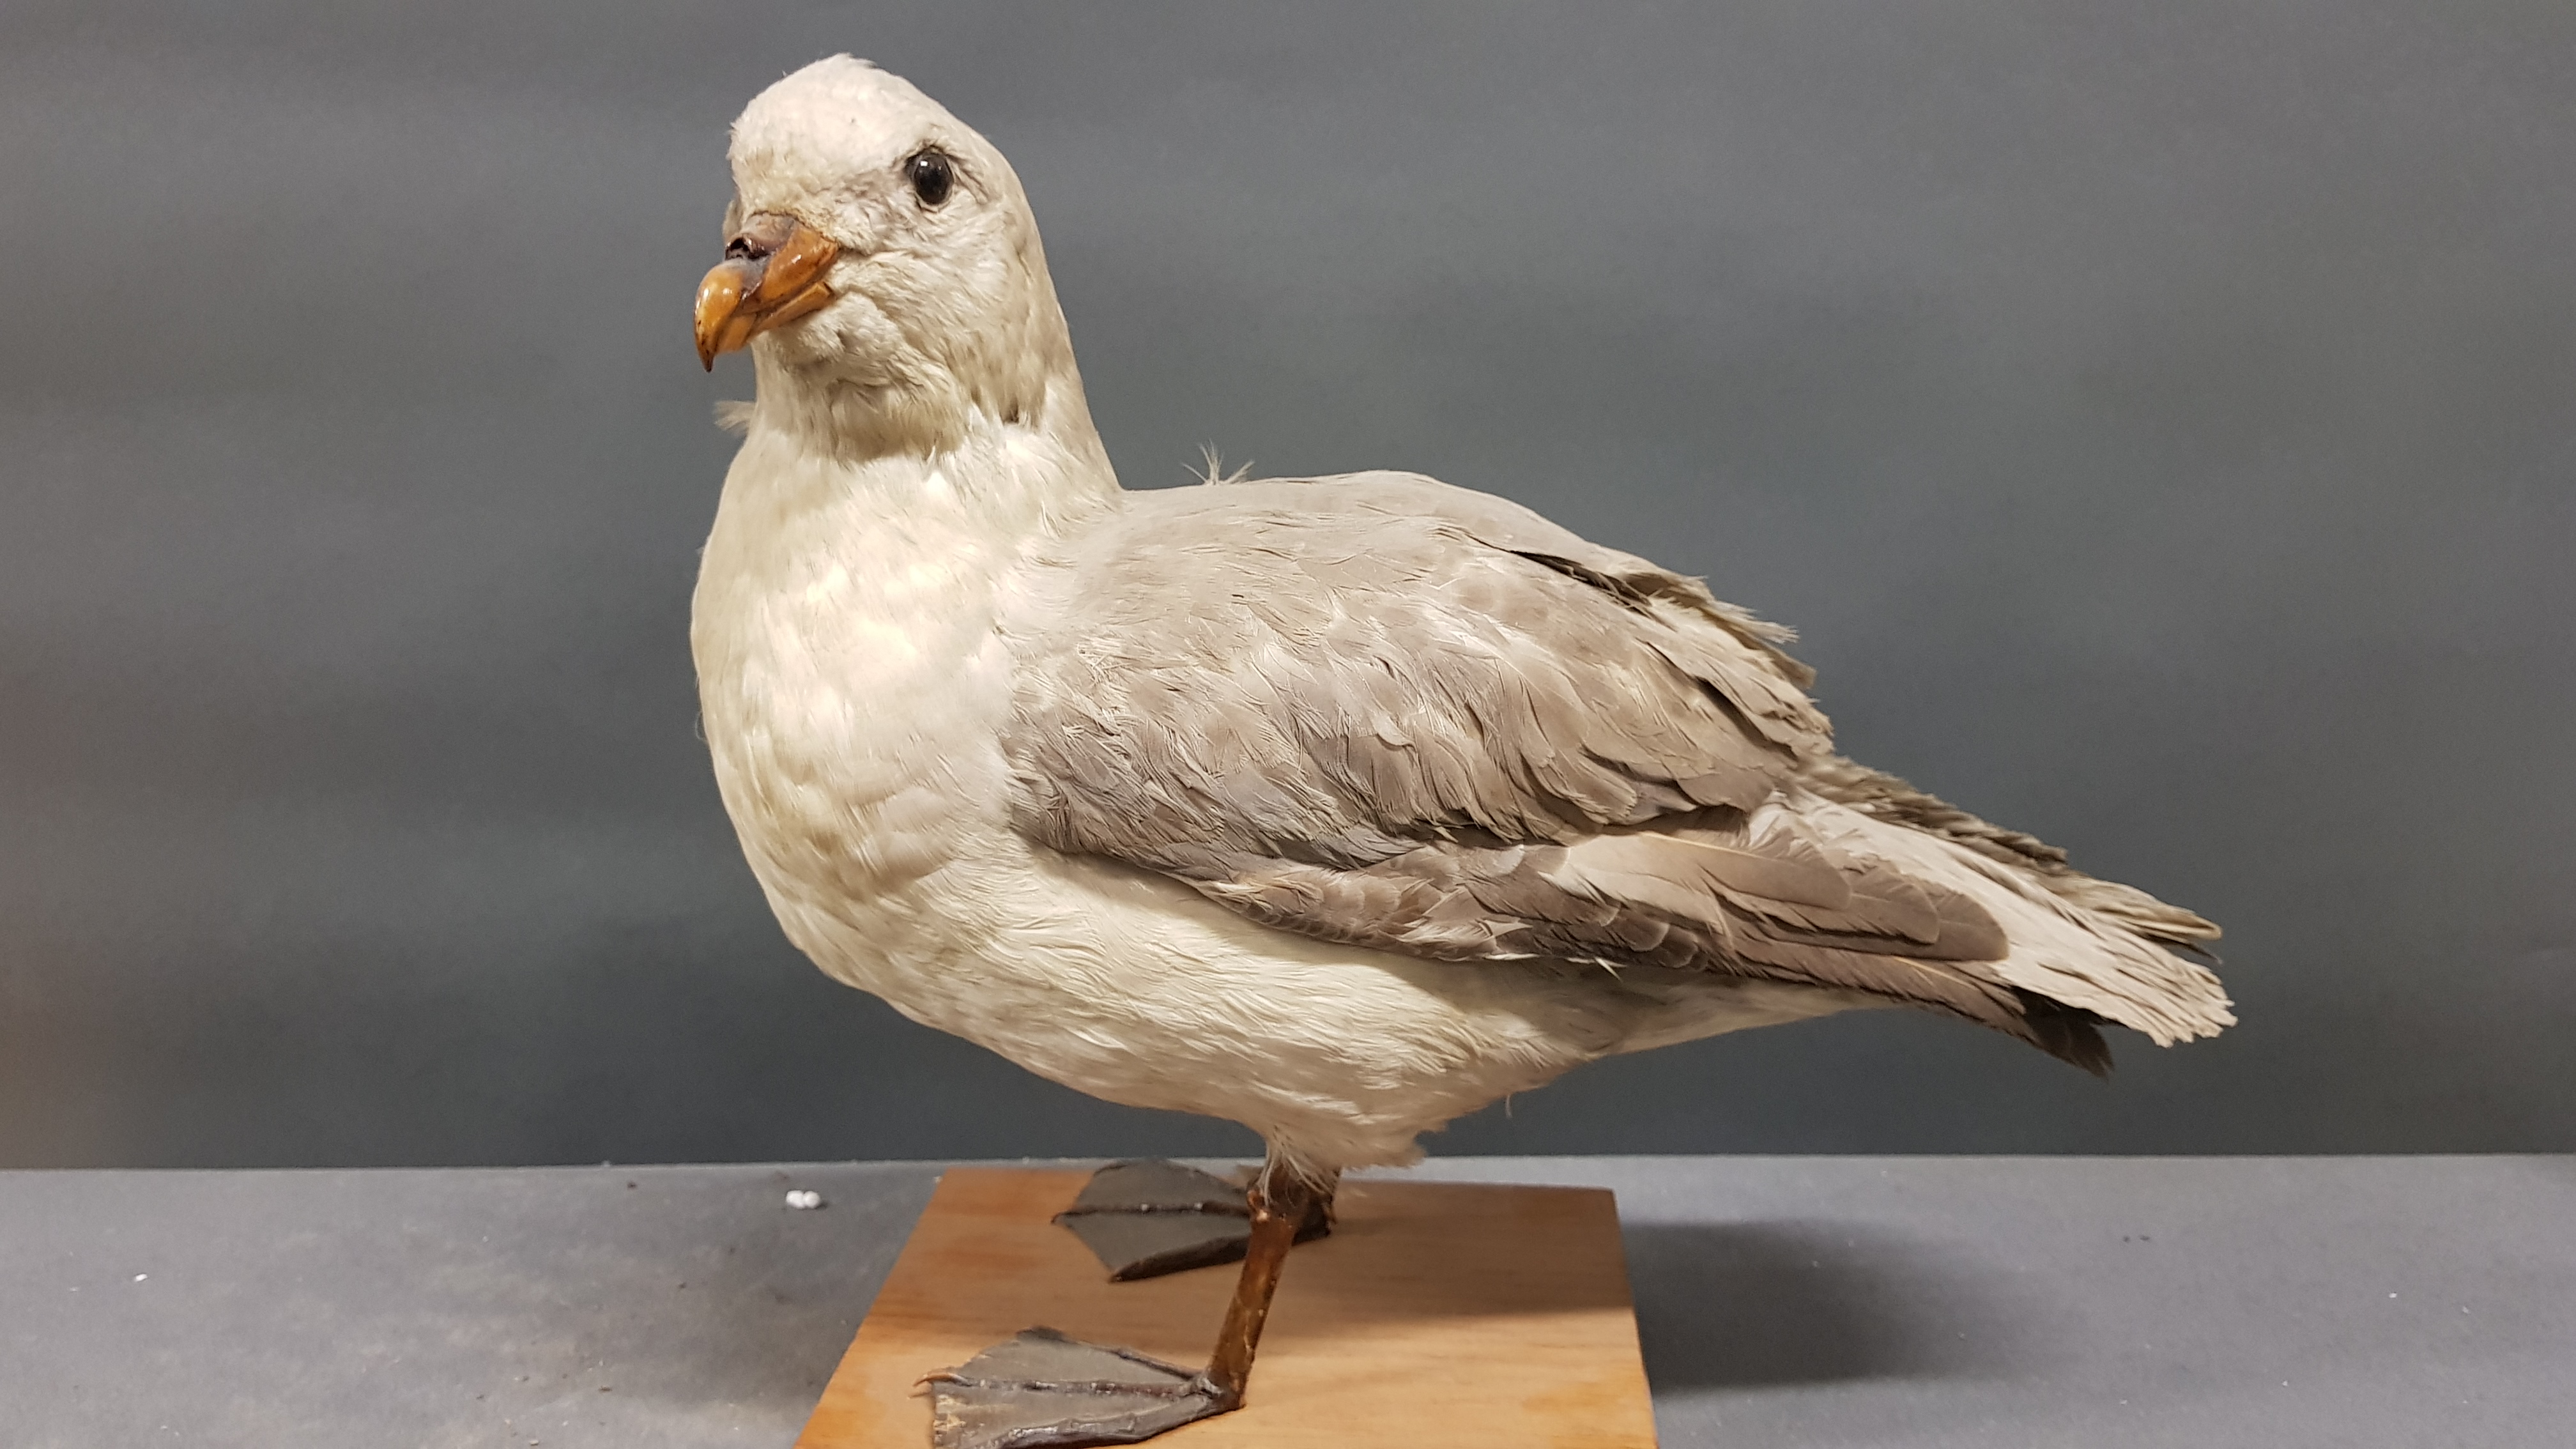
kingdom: Animalia
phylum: Chordata
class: Aves
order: Procellariiformes
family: Procellariidae
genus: Fulmarus
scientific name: Fulmarus glacialis
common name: Northern fulmar
